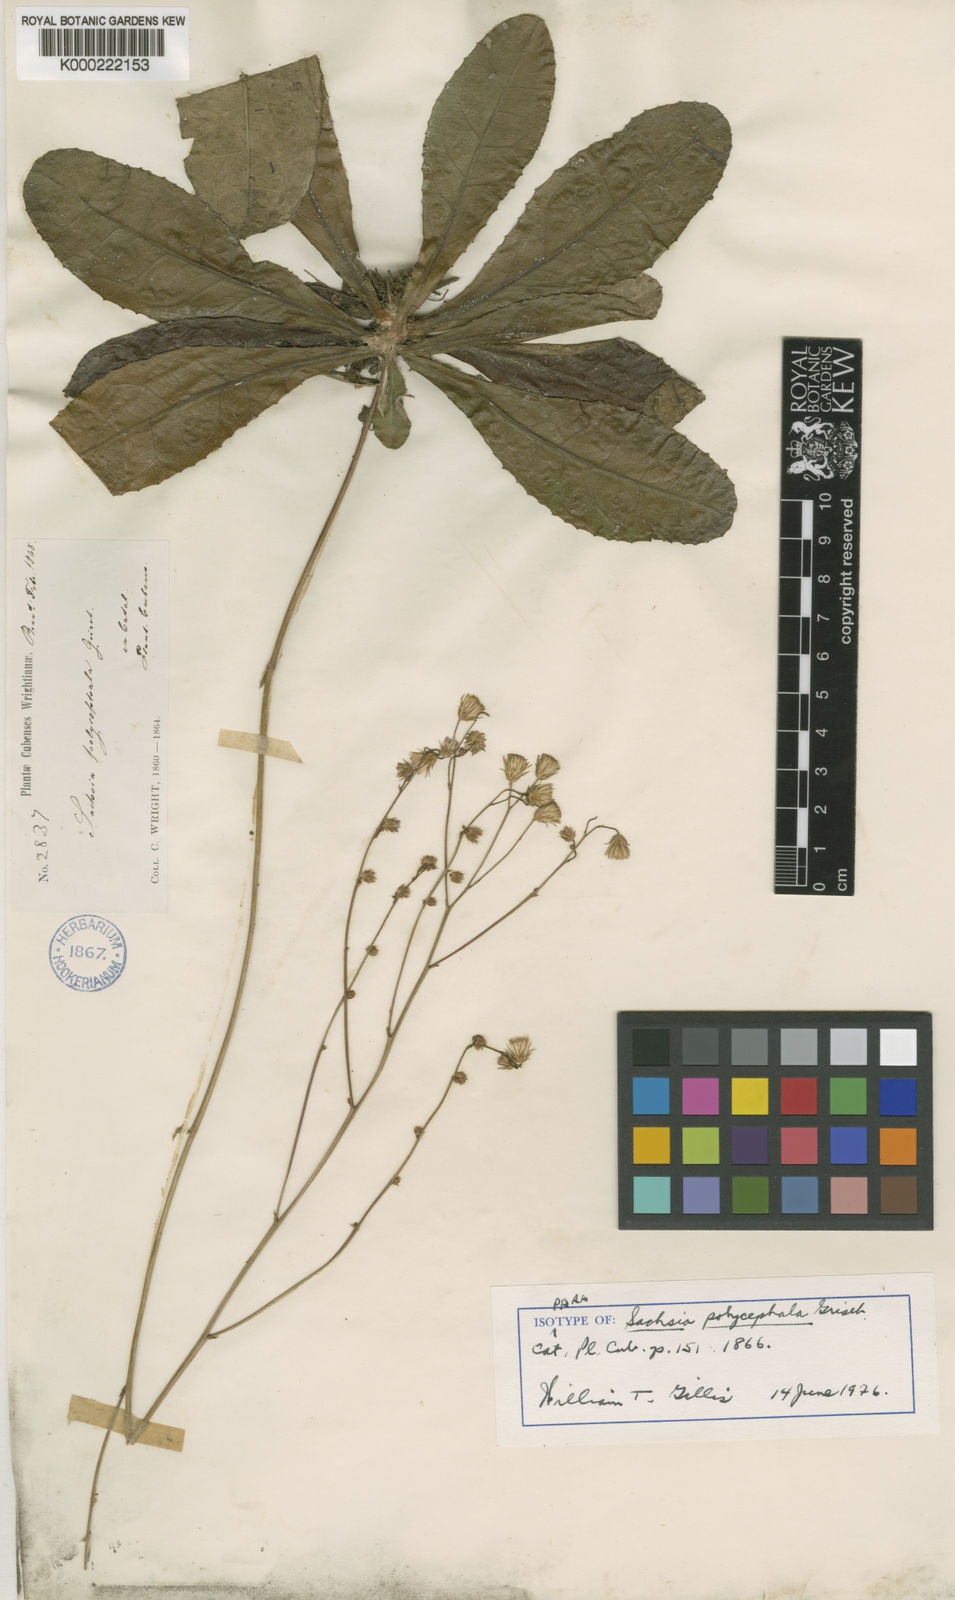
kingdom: Plantae
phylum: Tracheophyta
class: Magnoliopsida
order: Asterales
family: Asteraceae
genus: Sachsia
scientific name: Sachsia polycephala
